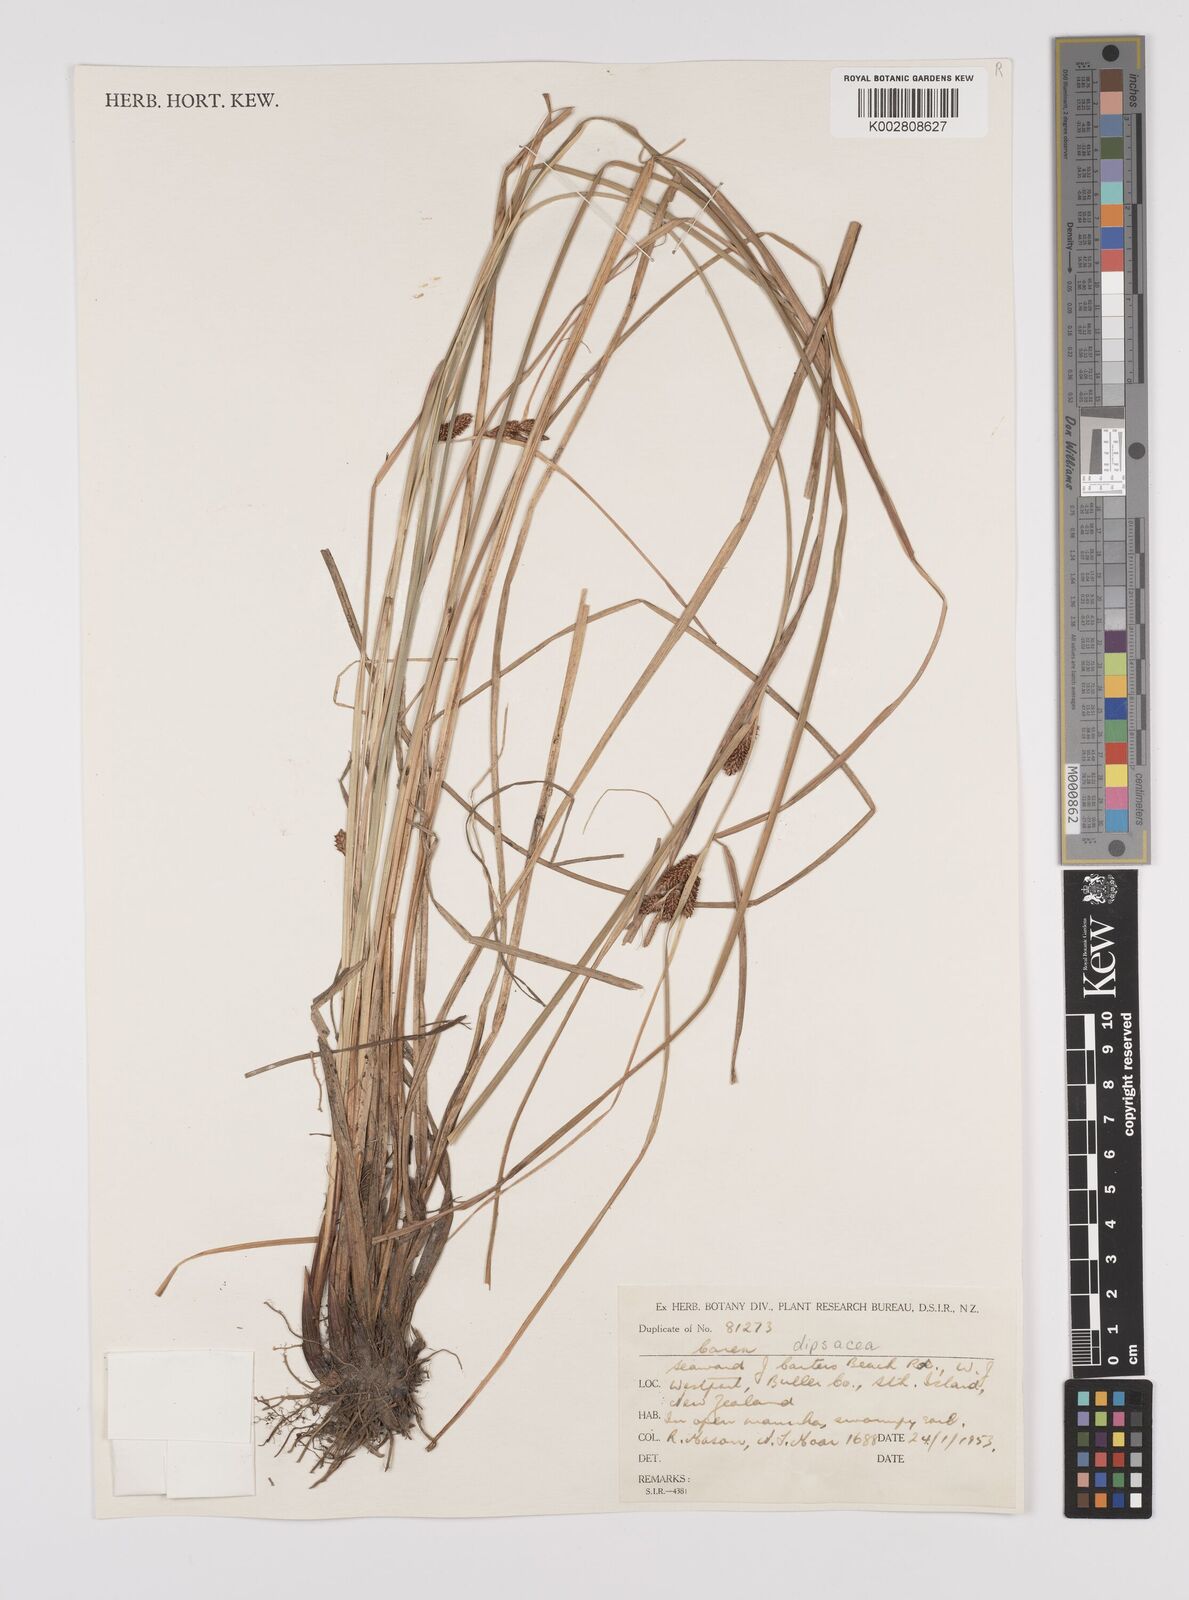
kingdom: Plantae
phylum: Tracheophyta
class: Liliopsida
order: Poales
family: Cyperaceae
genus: Carex
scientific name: Carex dipsacea
